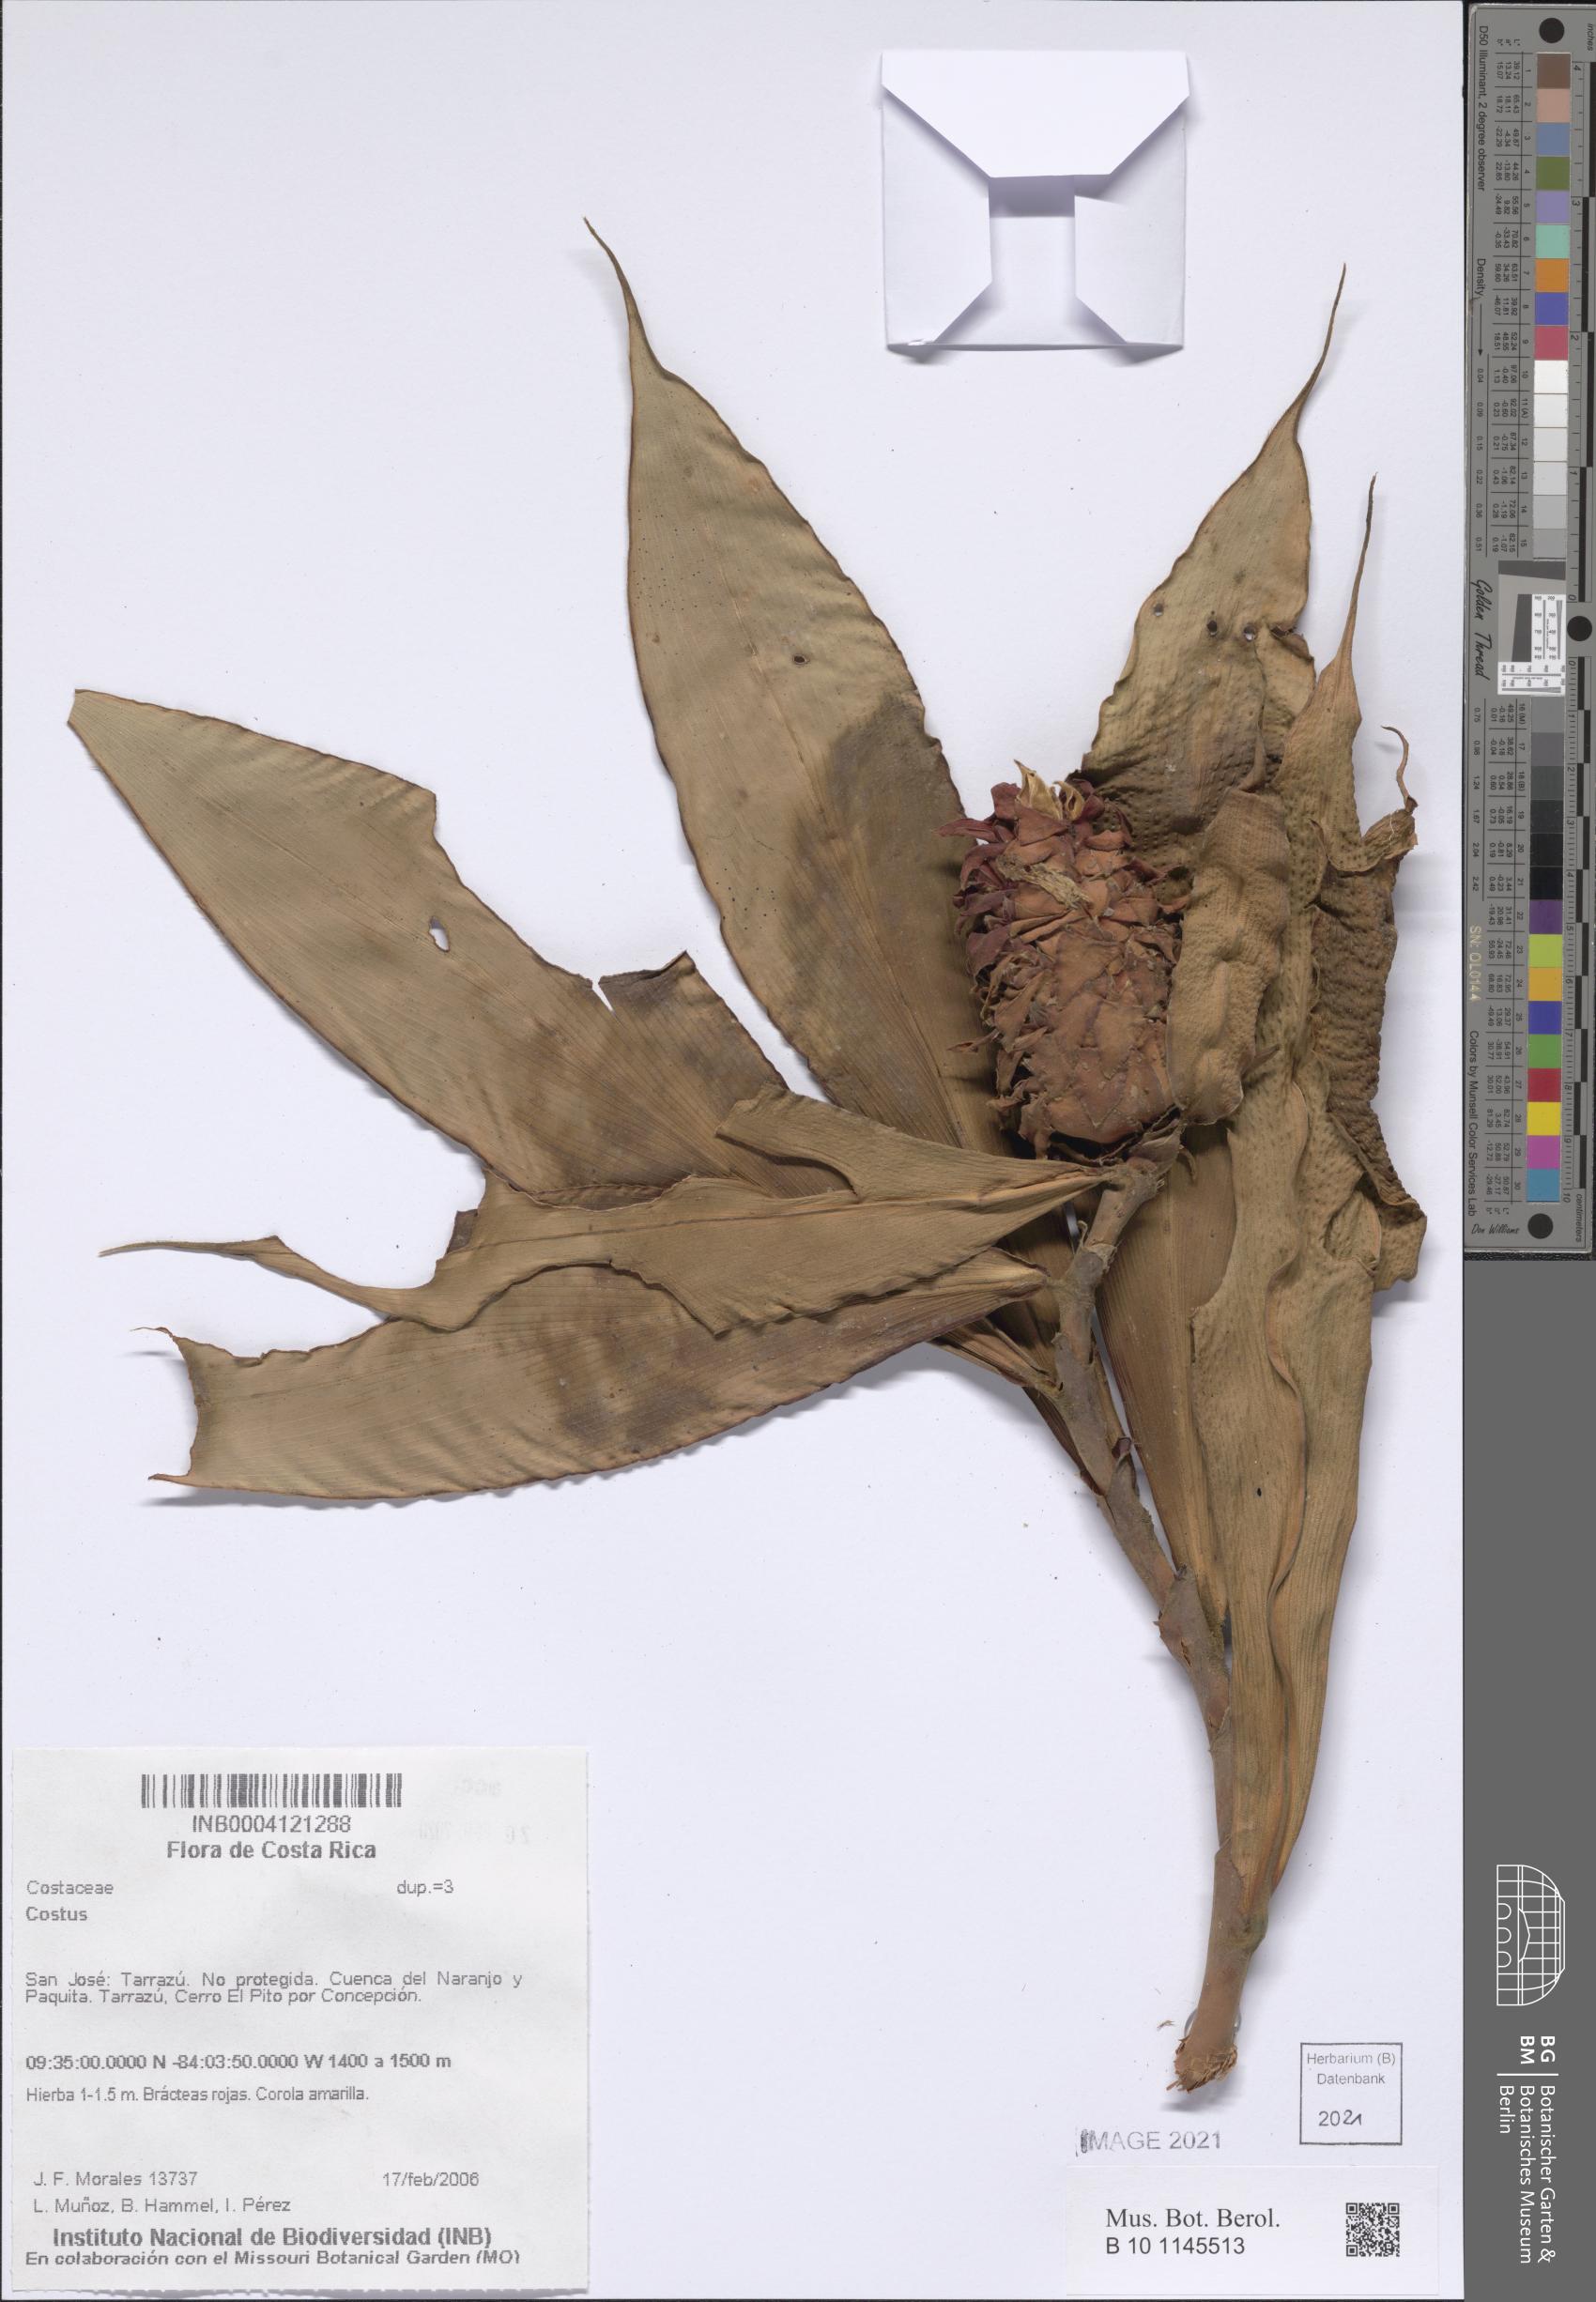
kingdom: Plantae
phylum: Tracheophyta
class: Liliopsida
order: Zingiberales
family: Costaceae
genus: Costus
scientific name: Costus
